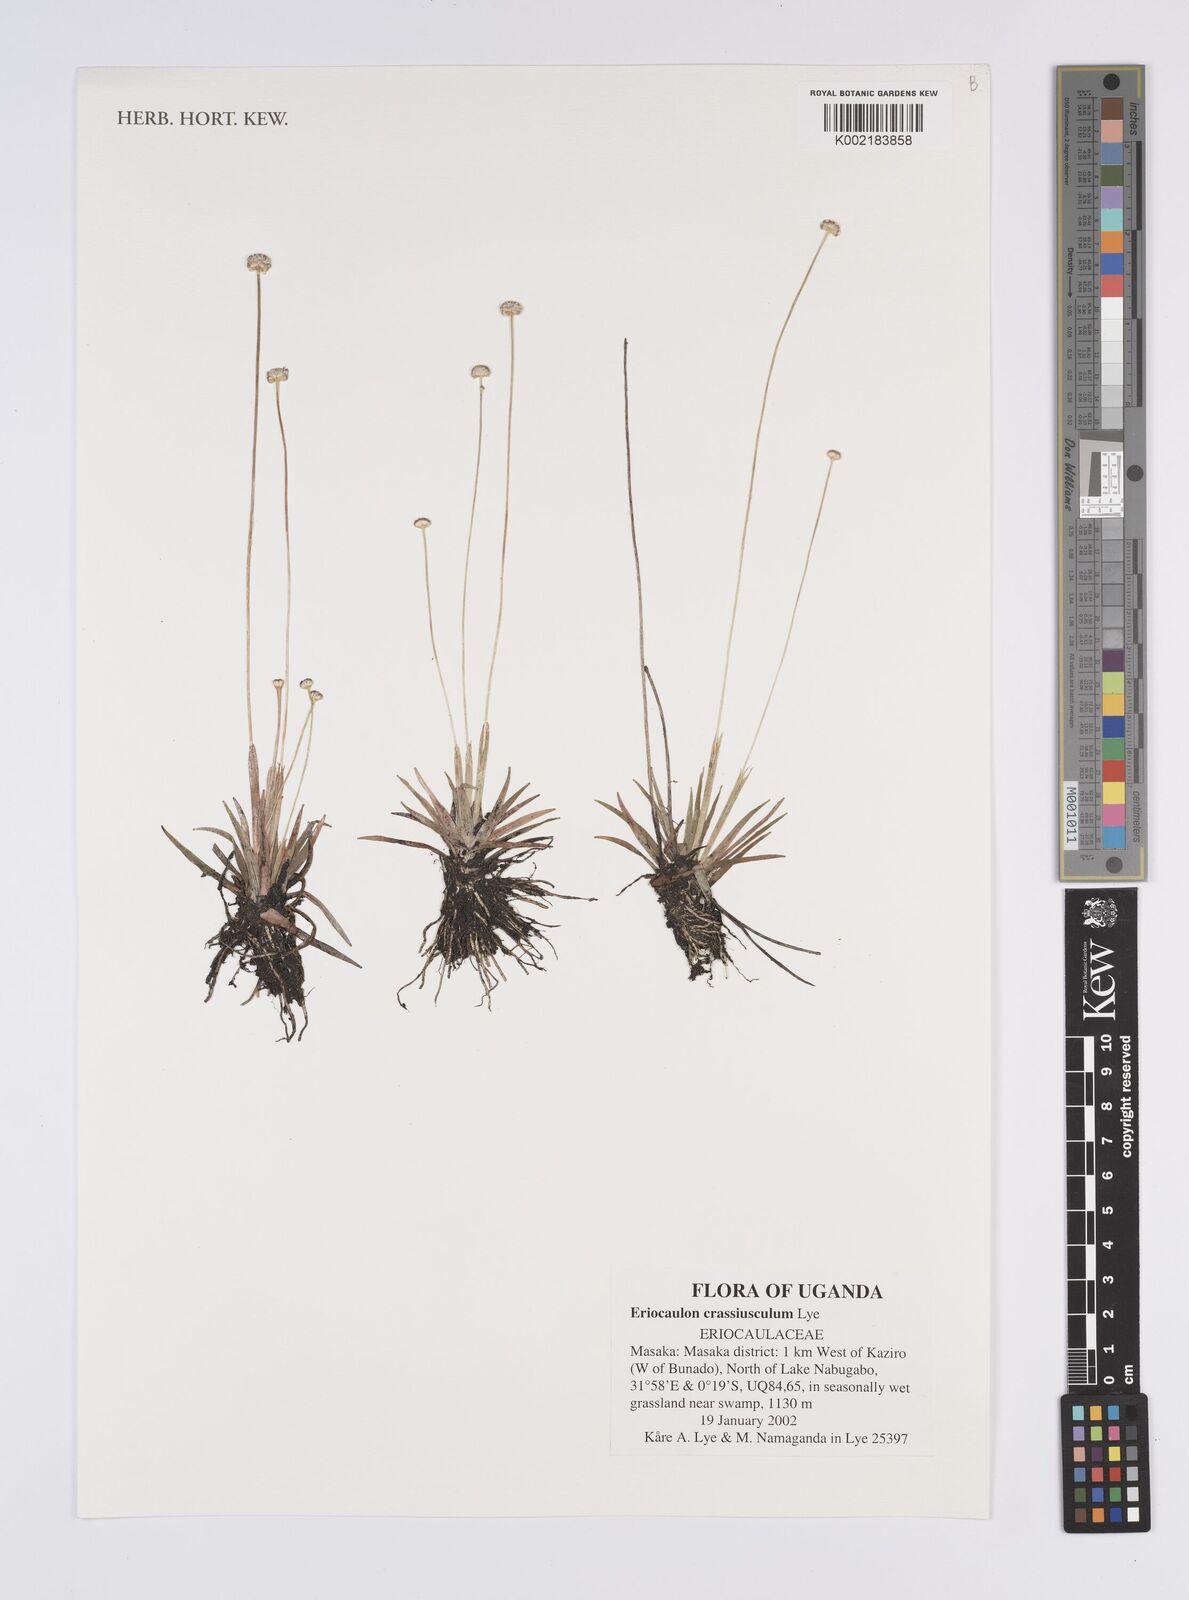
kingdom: Plantae
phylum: Tracheophyta
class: Liliopsida
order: Poales
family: Eriocaulaceae
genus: Eriocaulon
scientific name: Eriocaulon crassiusculum
